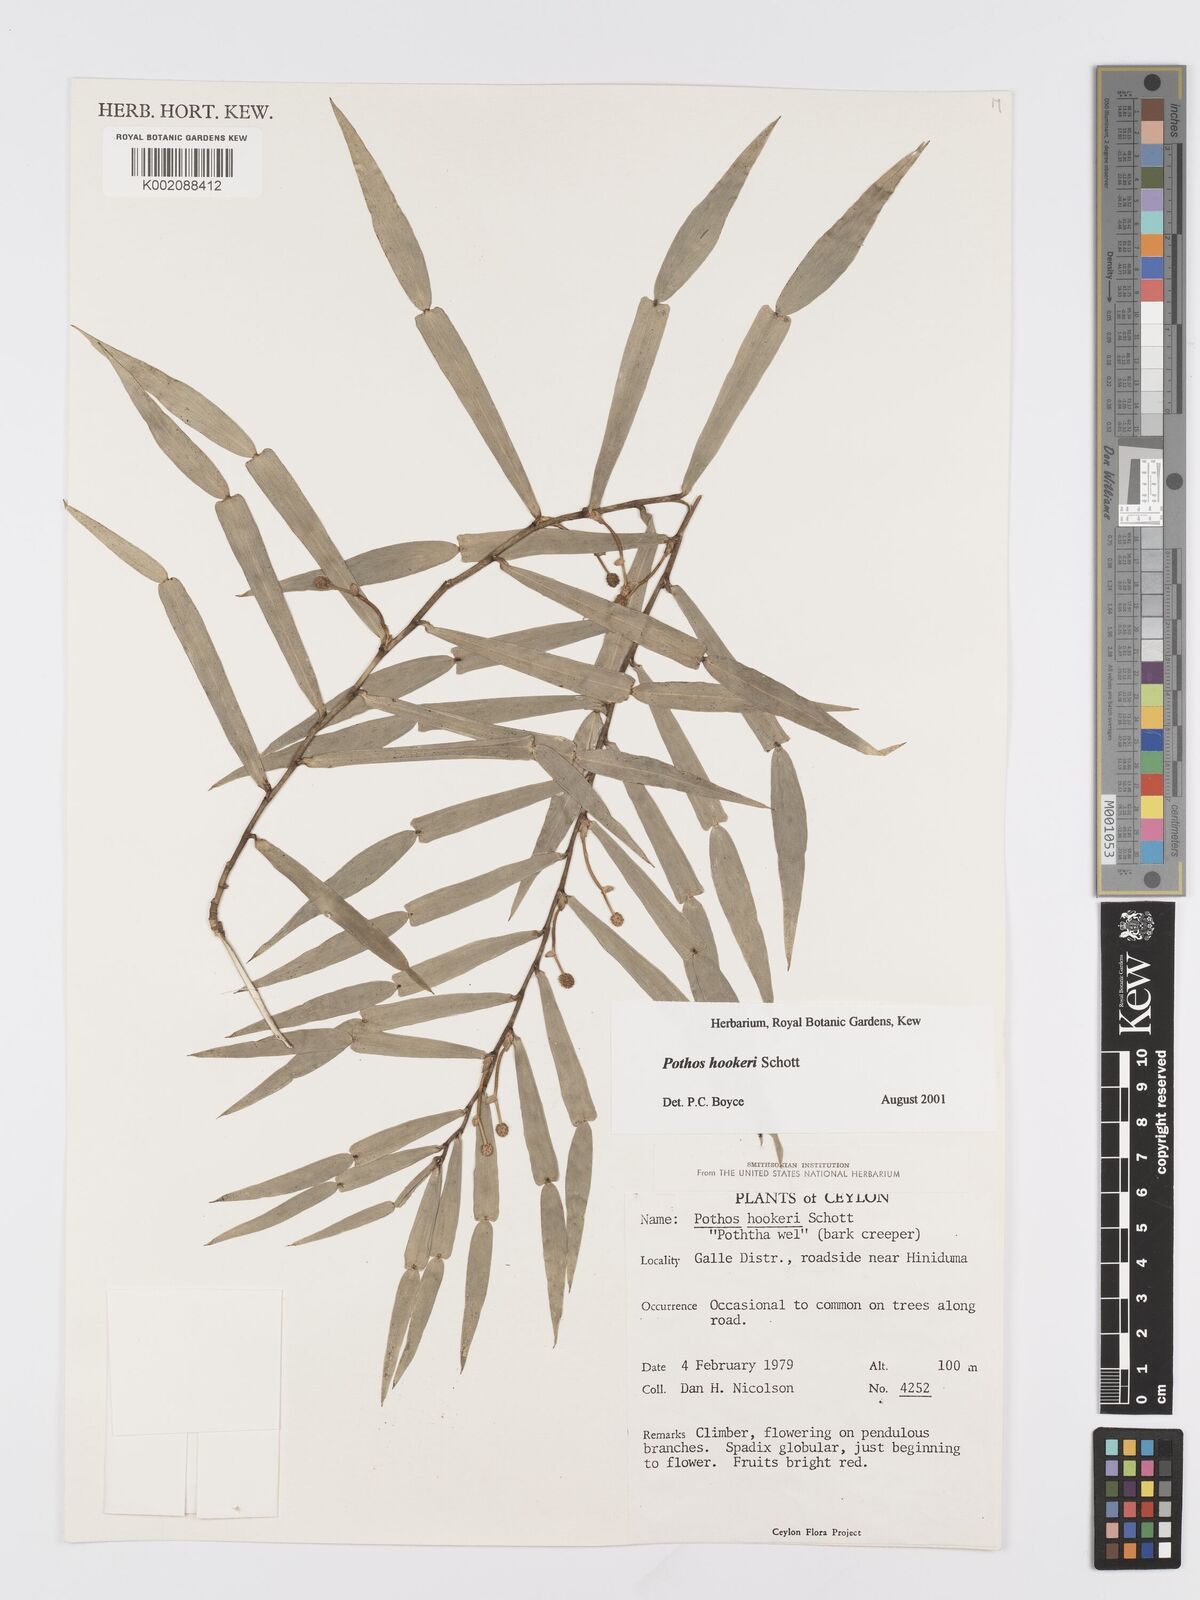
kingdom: Plantae
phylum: Tracheophyta
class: Liliopsida
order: Alismatales
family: Araceae
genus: Pothos
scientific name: Pothos hookeri
